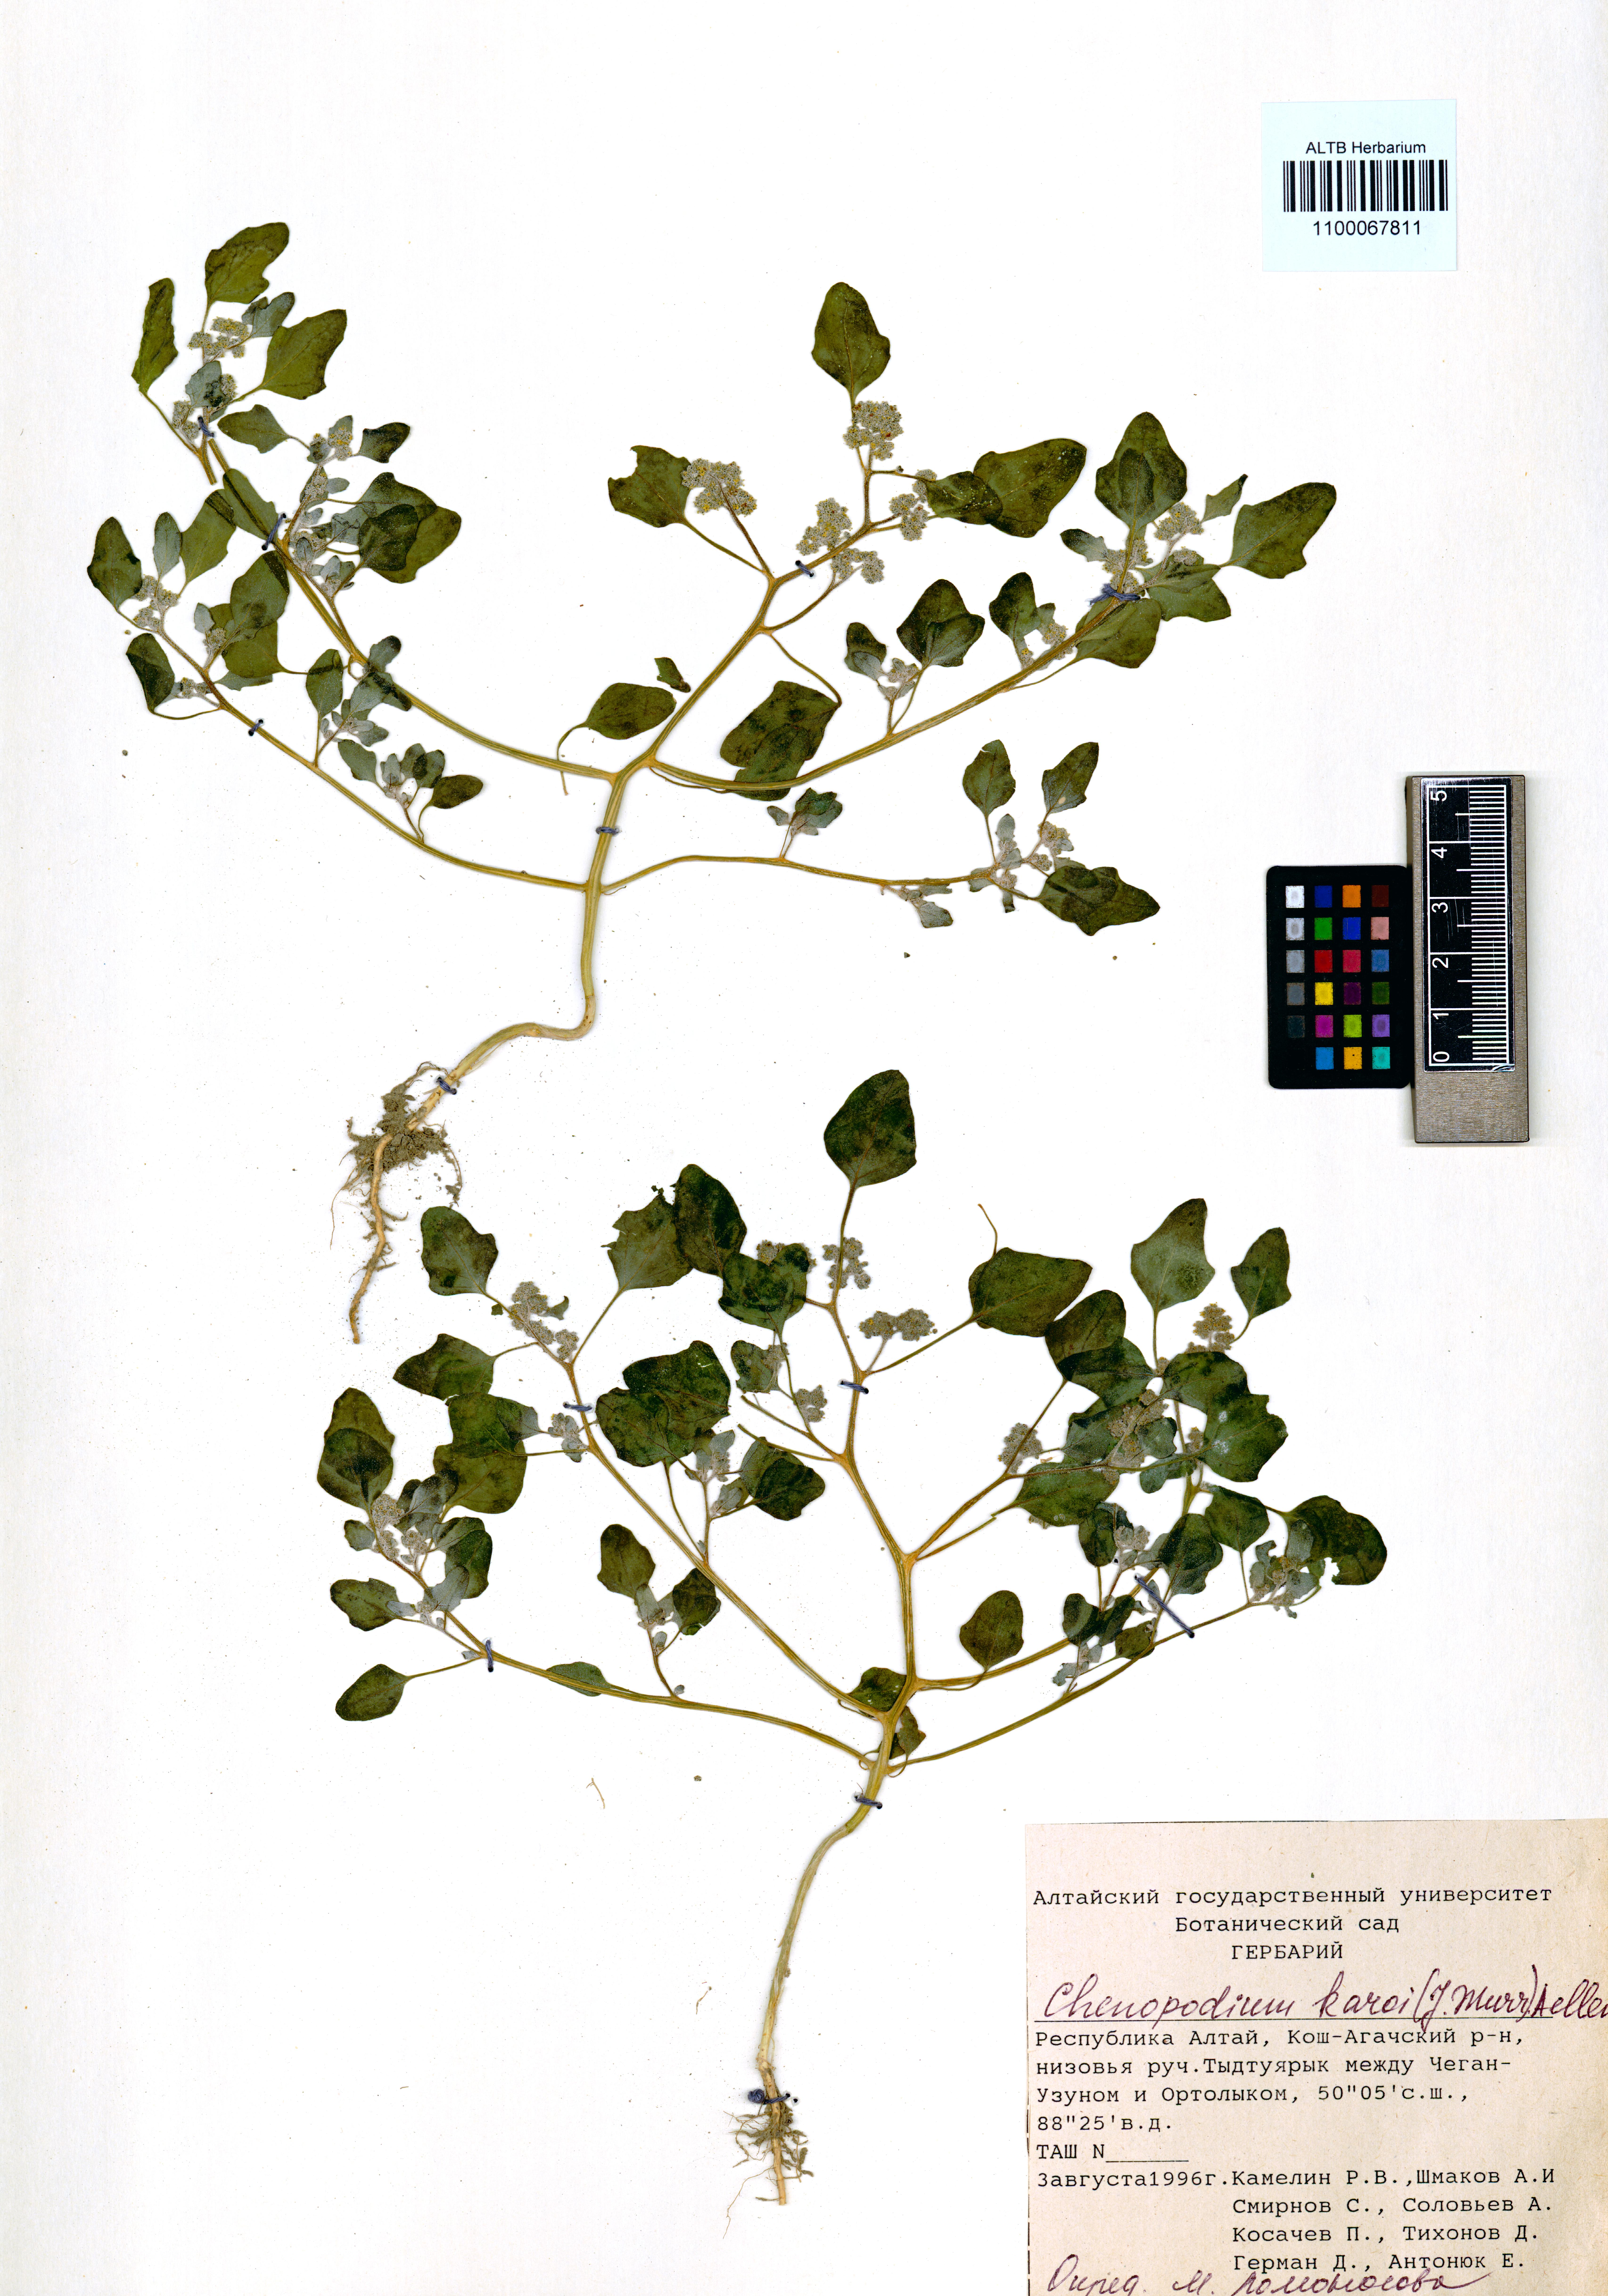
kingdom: Plantae
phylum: Tracheophyta
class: Magnoliopsida
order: Caryophyllales
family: Amaranthaceae
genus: Chenopodium
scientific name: Chenopodium karoi
